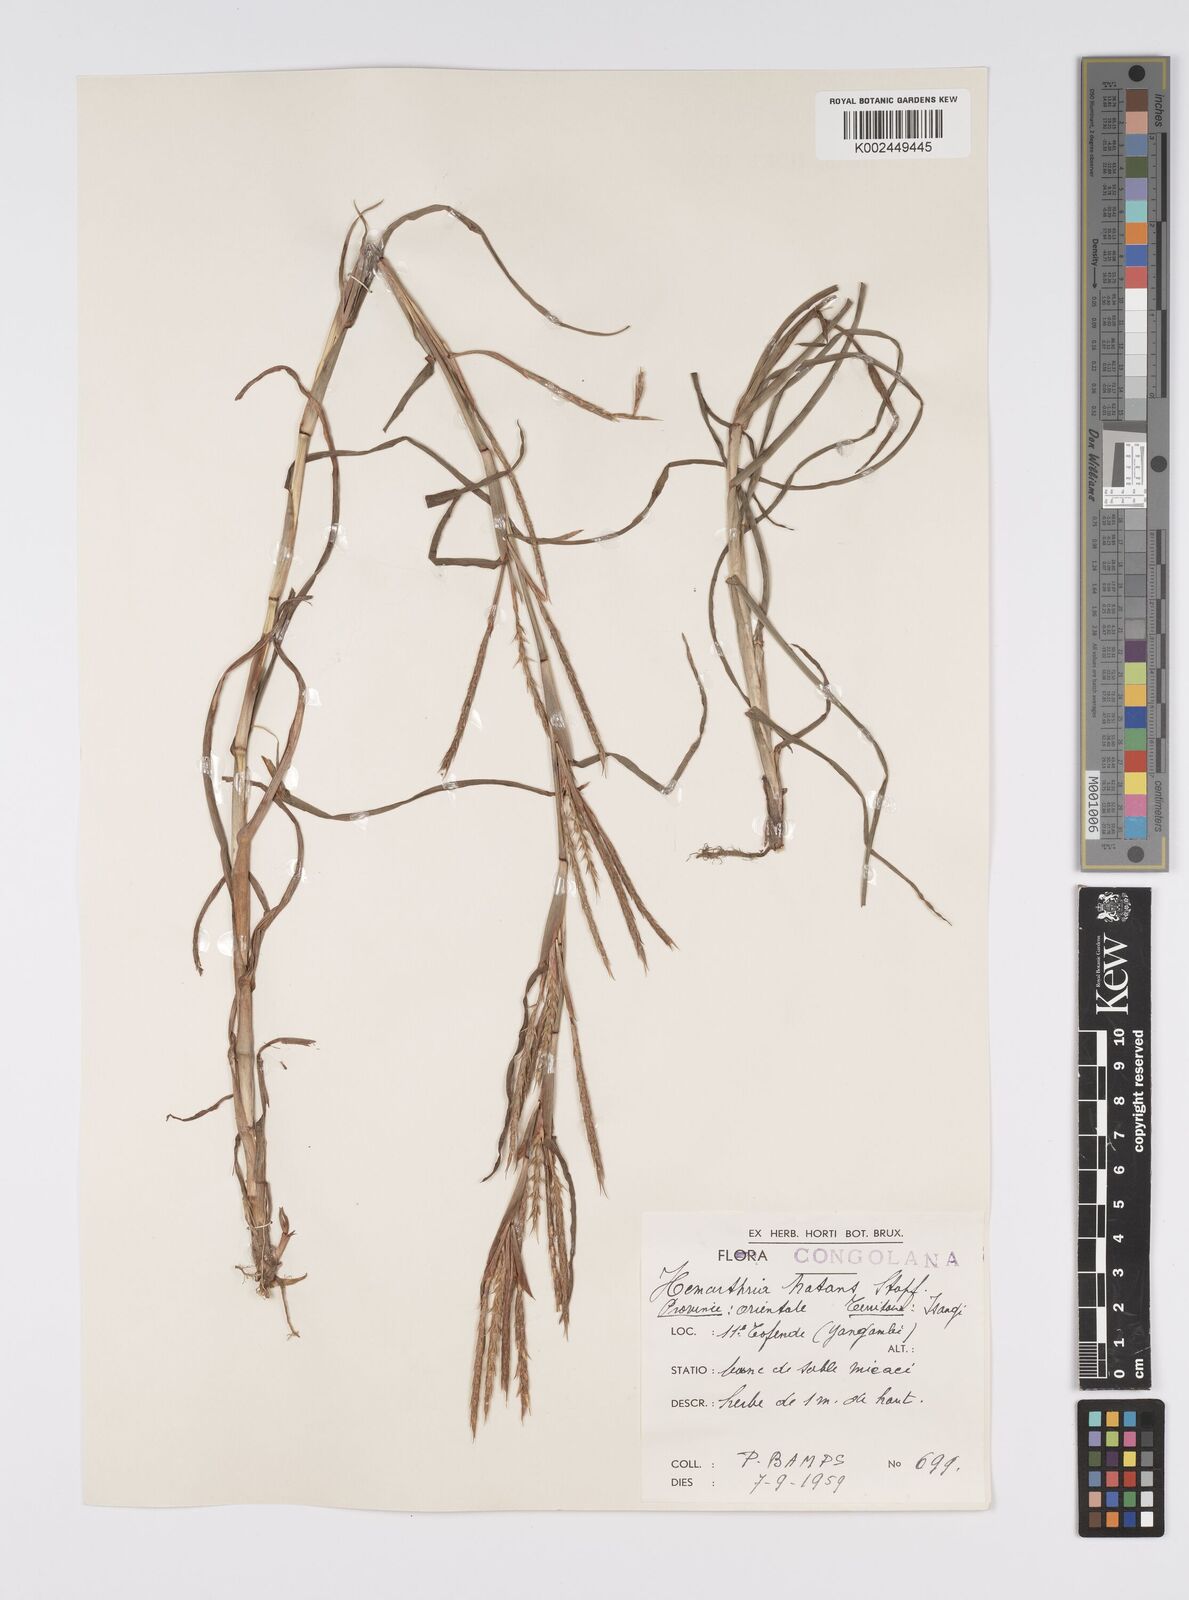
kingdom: Plantae
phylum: Tracheophyta
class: Liliopsida
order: Poales
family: Poaceae
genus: Hemarthria
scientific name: Hemarthria natans
